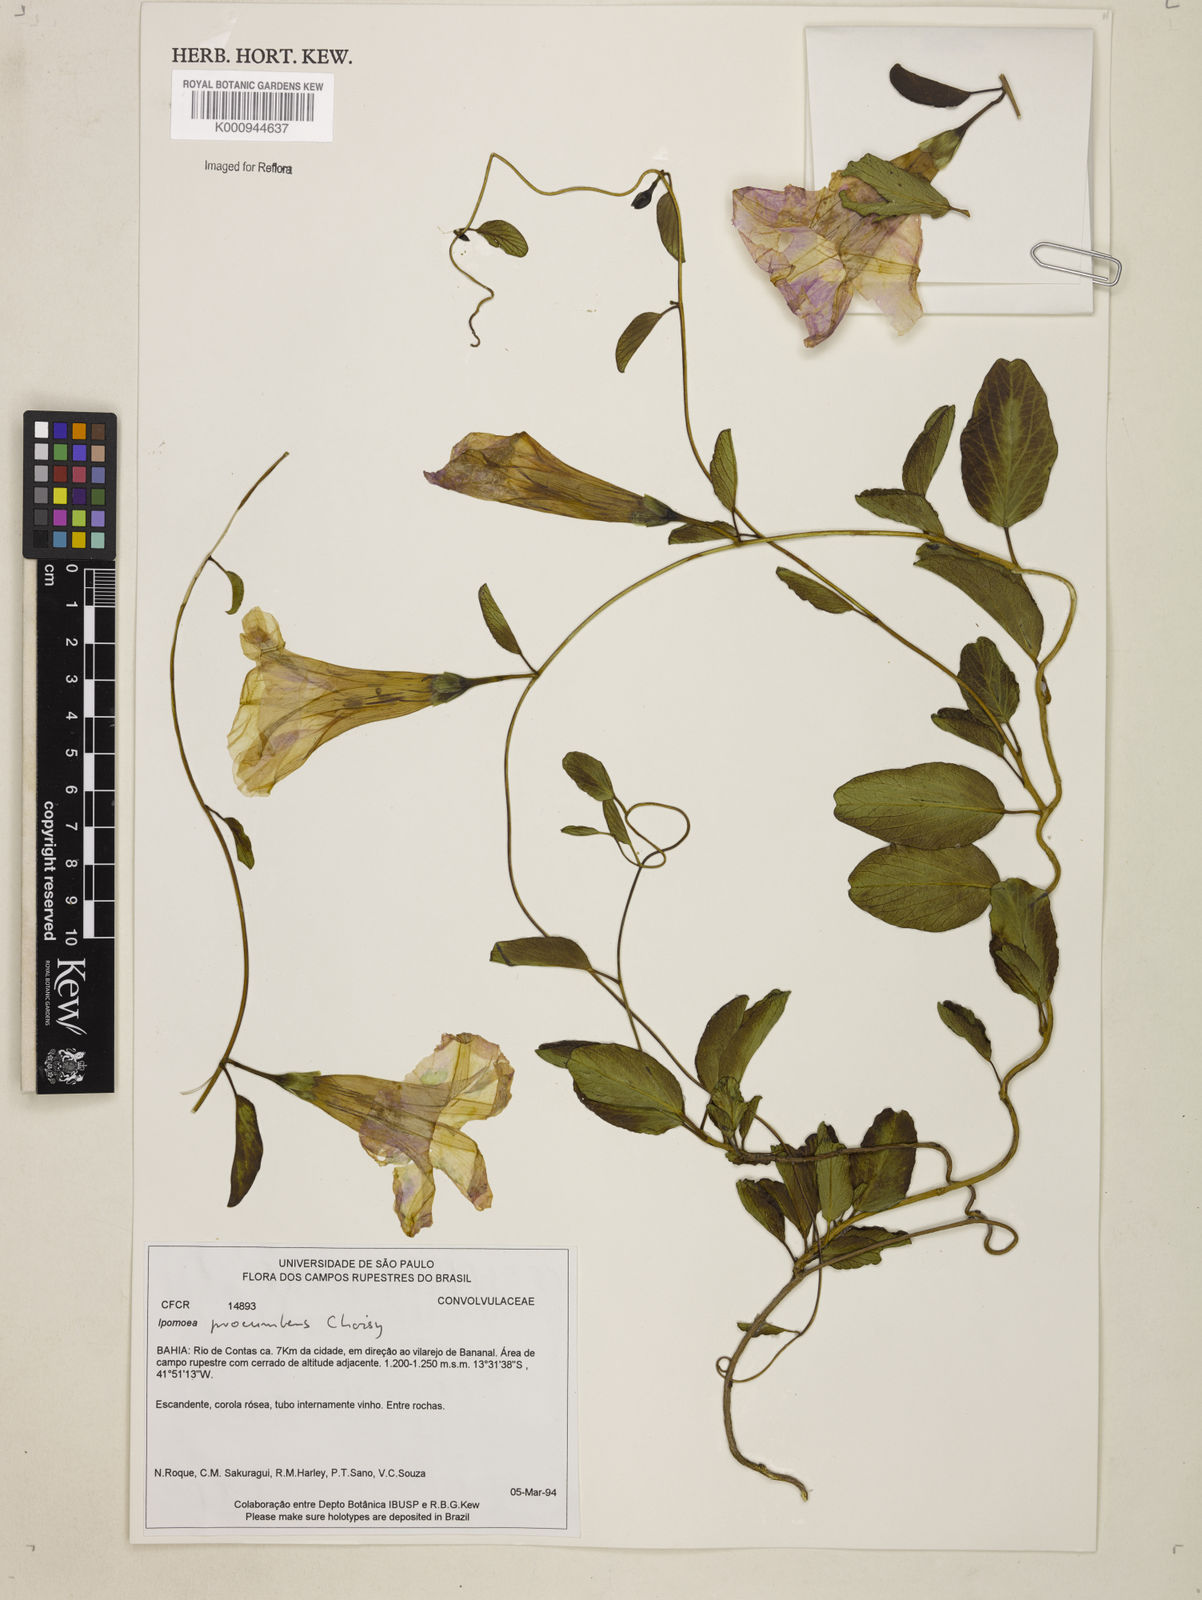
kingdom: Plantae
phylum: Tracheophyta
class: Magnoliopsida
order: Solanales
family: Convolvulaceae
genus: Ipomoea
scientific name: Ipomoea procumbens
